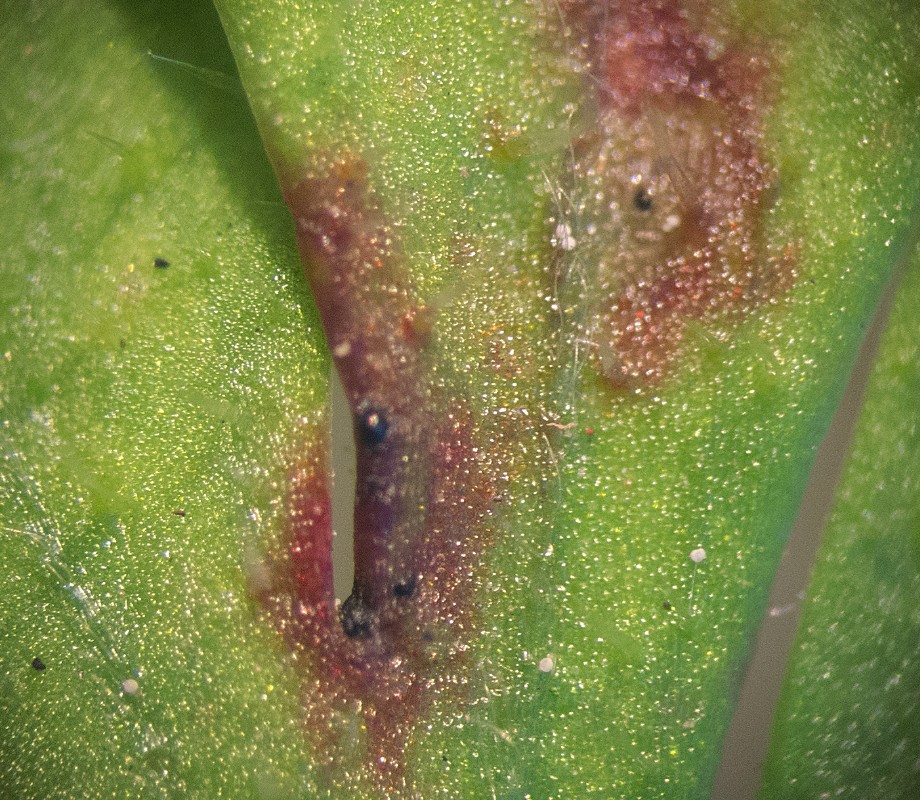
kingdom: Fungi
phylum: Ascomycota
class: Dothideomycetes
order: Venturiales
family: Venturiaceae
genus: Coleroa
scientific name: Coleroa robertiani
